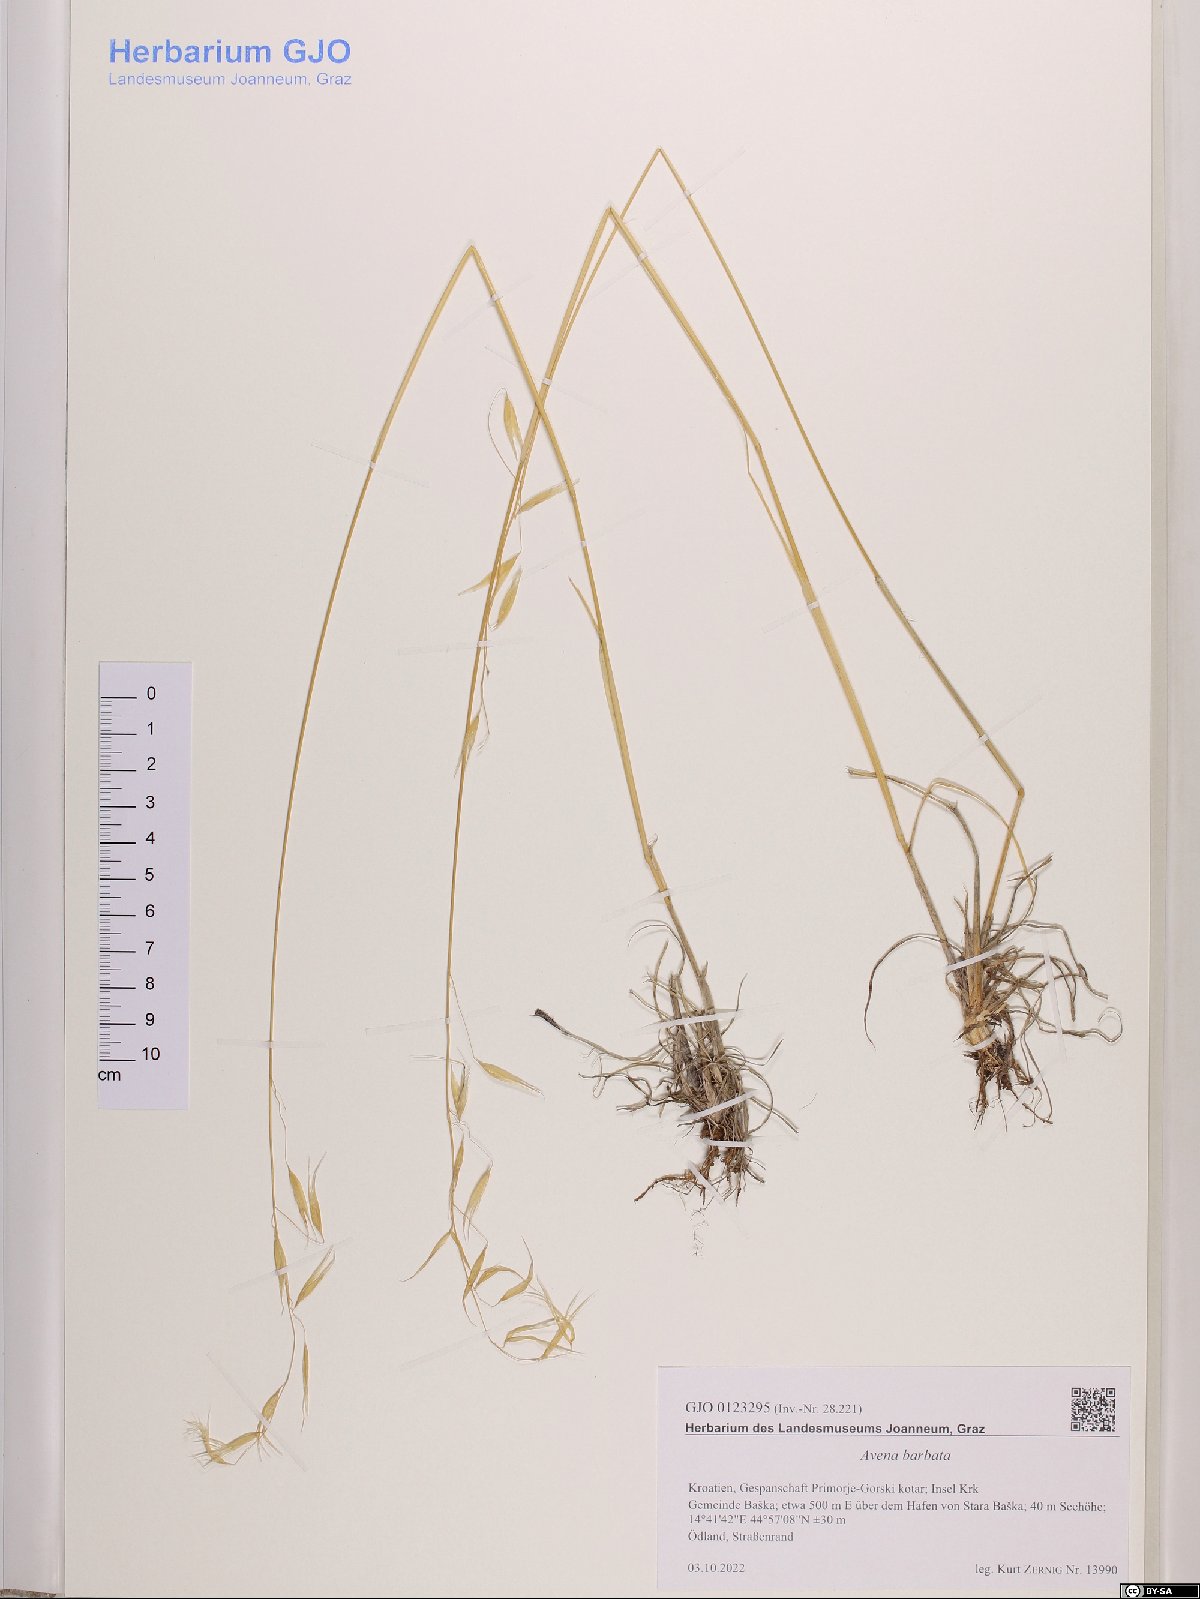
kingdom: Plantae
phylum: Tracheophyta
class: Liliopsida
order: Poales
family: Poaceae
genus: Avena
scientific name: Avena barbata
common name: Slender oat
